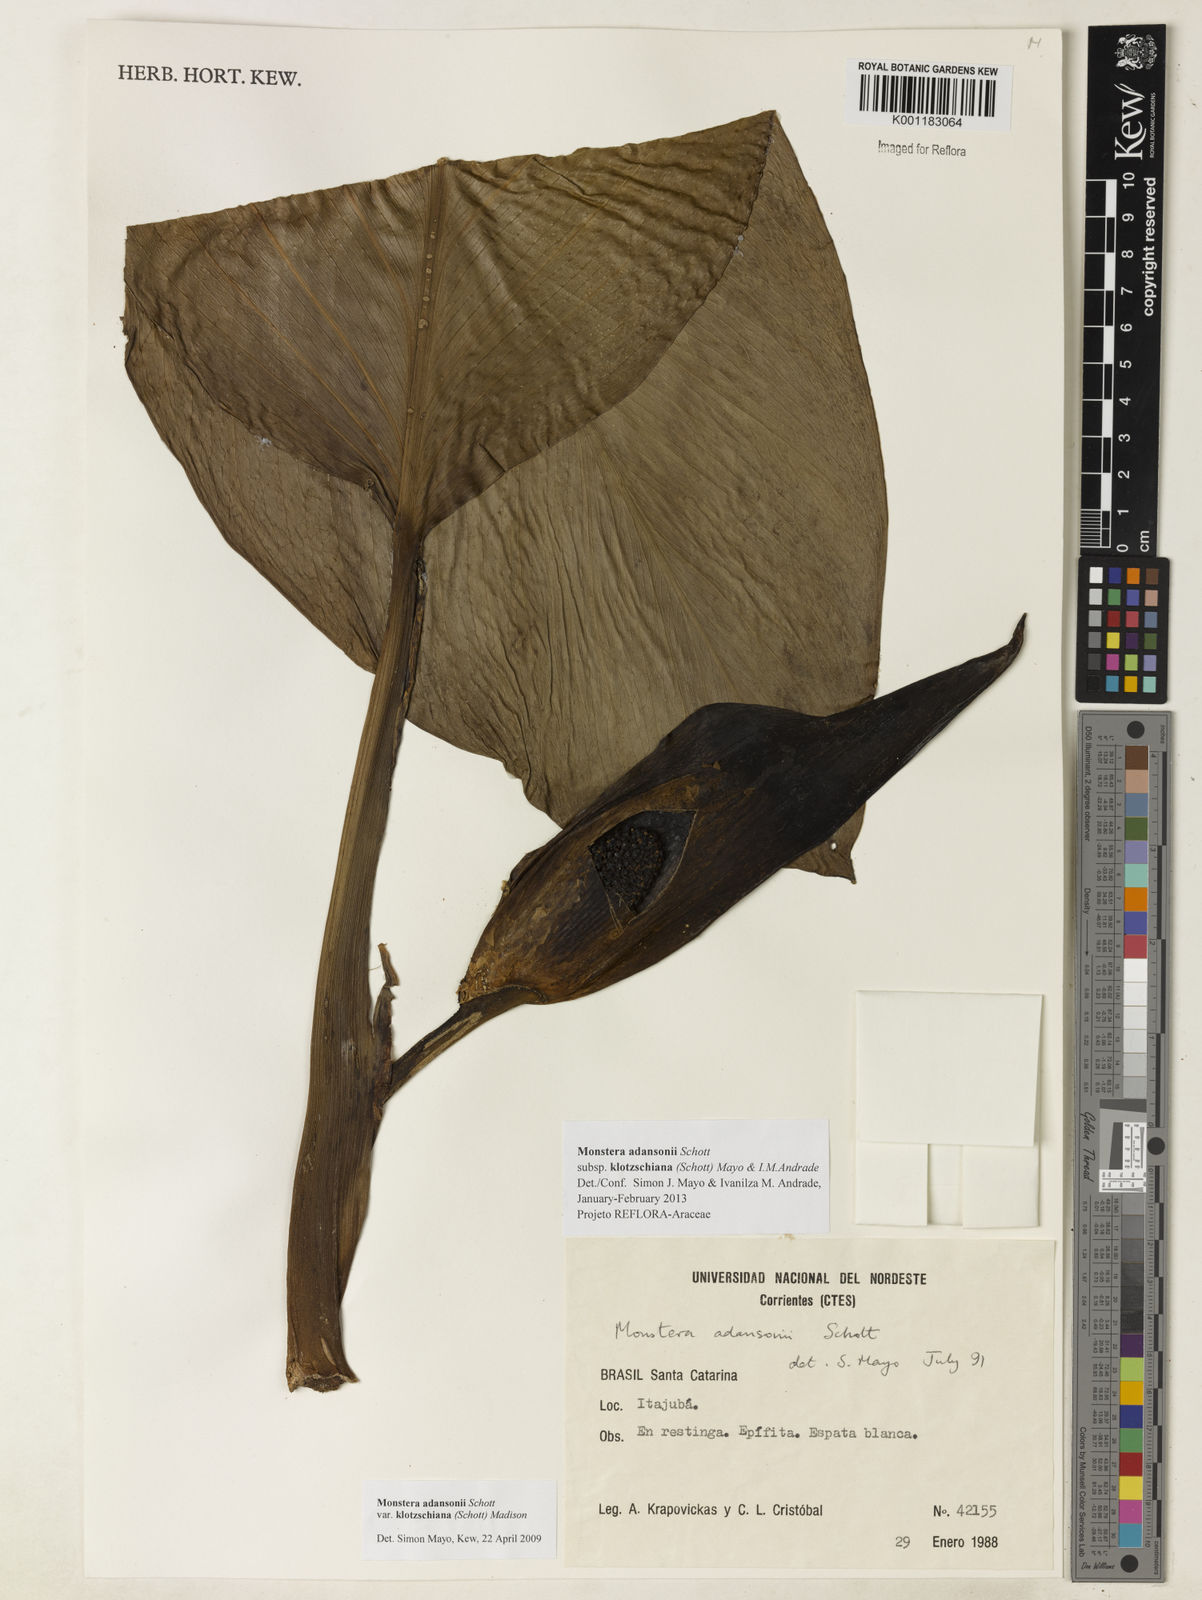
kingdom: Plantae
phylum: Tracheophyta
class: Liliopsida
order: Alismatales
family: Araceae
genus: Monstera
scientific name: Monstera adansonii
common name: Tarovine
